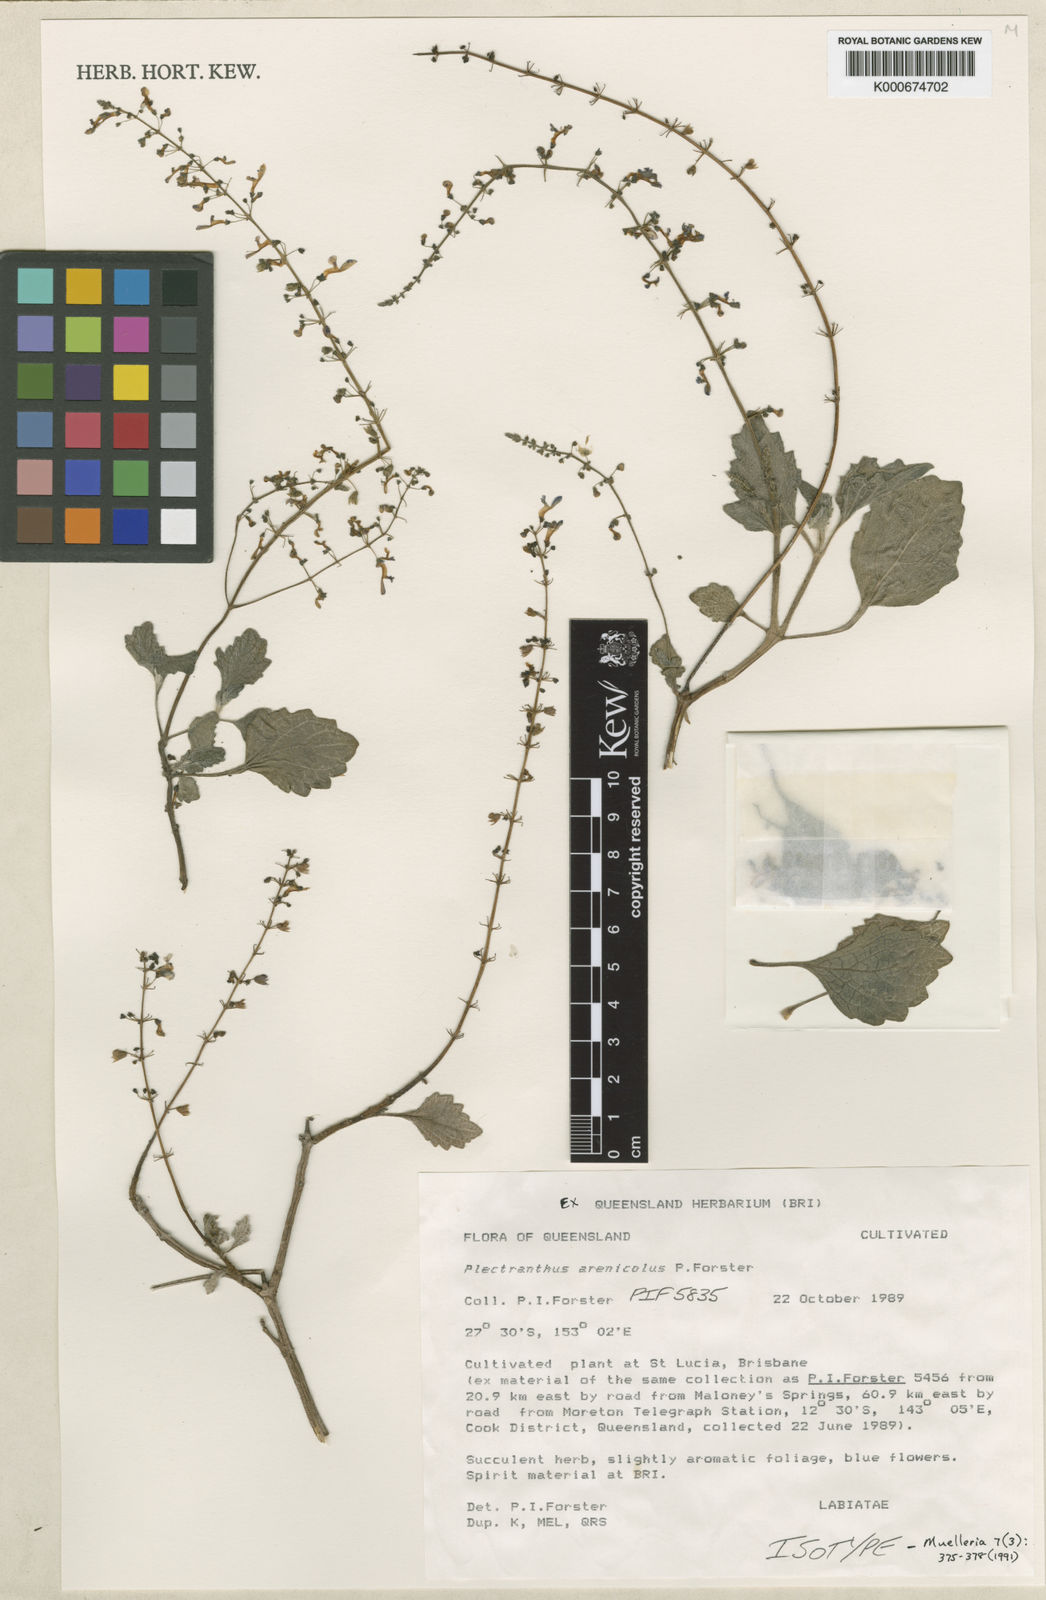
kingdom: Plantae
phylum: Tracheophyta
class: Magnoliopsida
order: Lamiales
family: Lamiaceae
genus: Coleus
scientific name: Coleus arenicola
